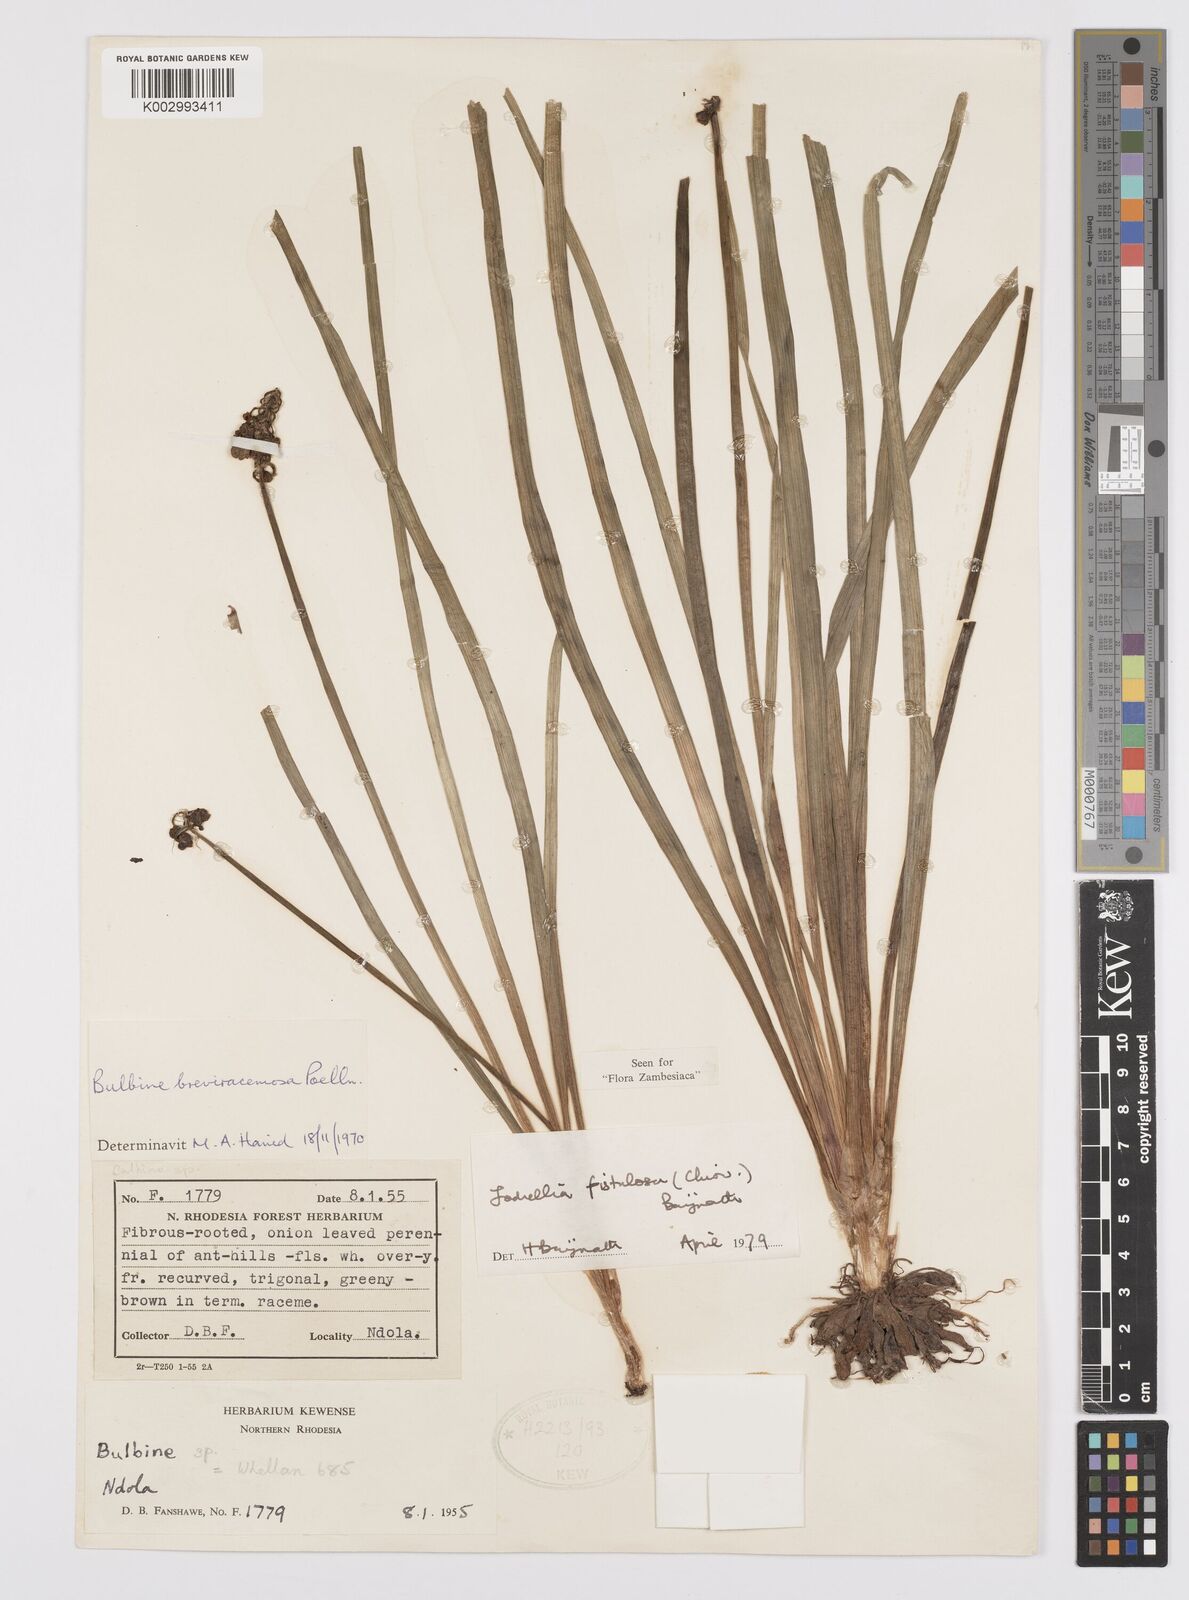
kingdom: Plantae
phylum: Tracheophyta
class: Liliopsida
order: Asparagales
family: Asphodelaceae
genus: Bulbine
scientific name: Bulbine fistulosa
